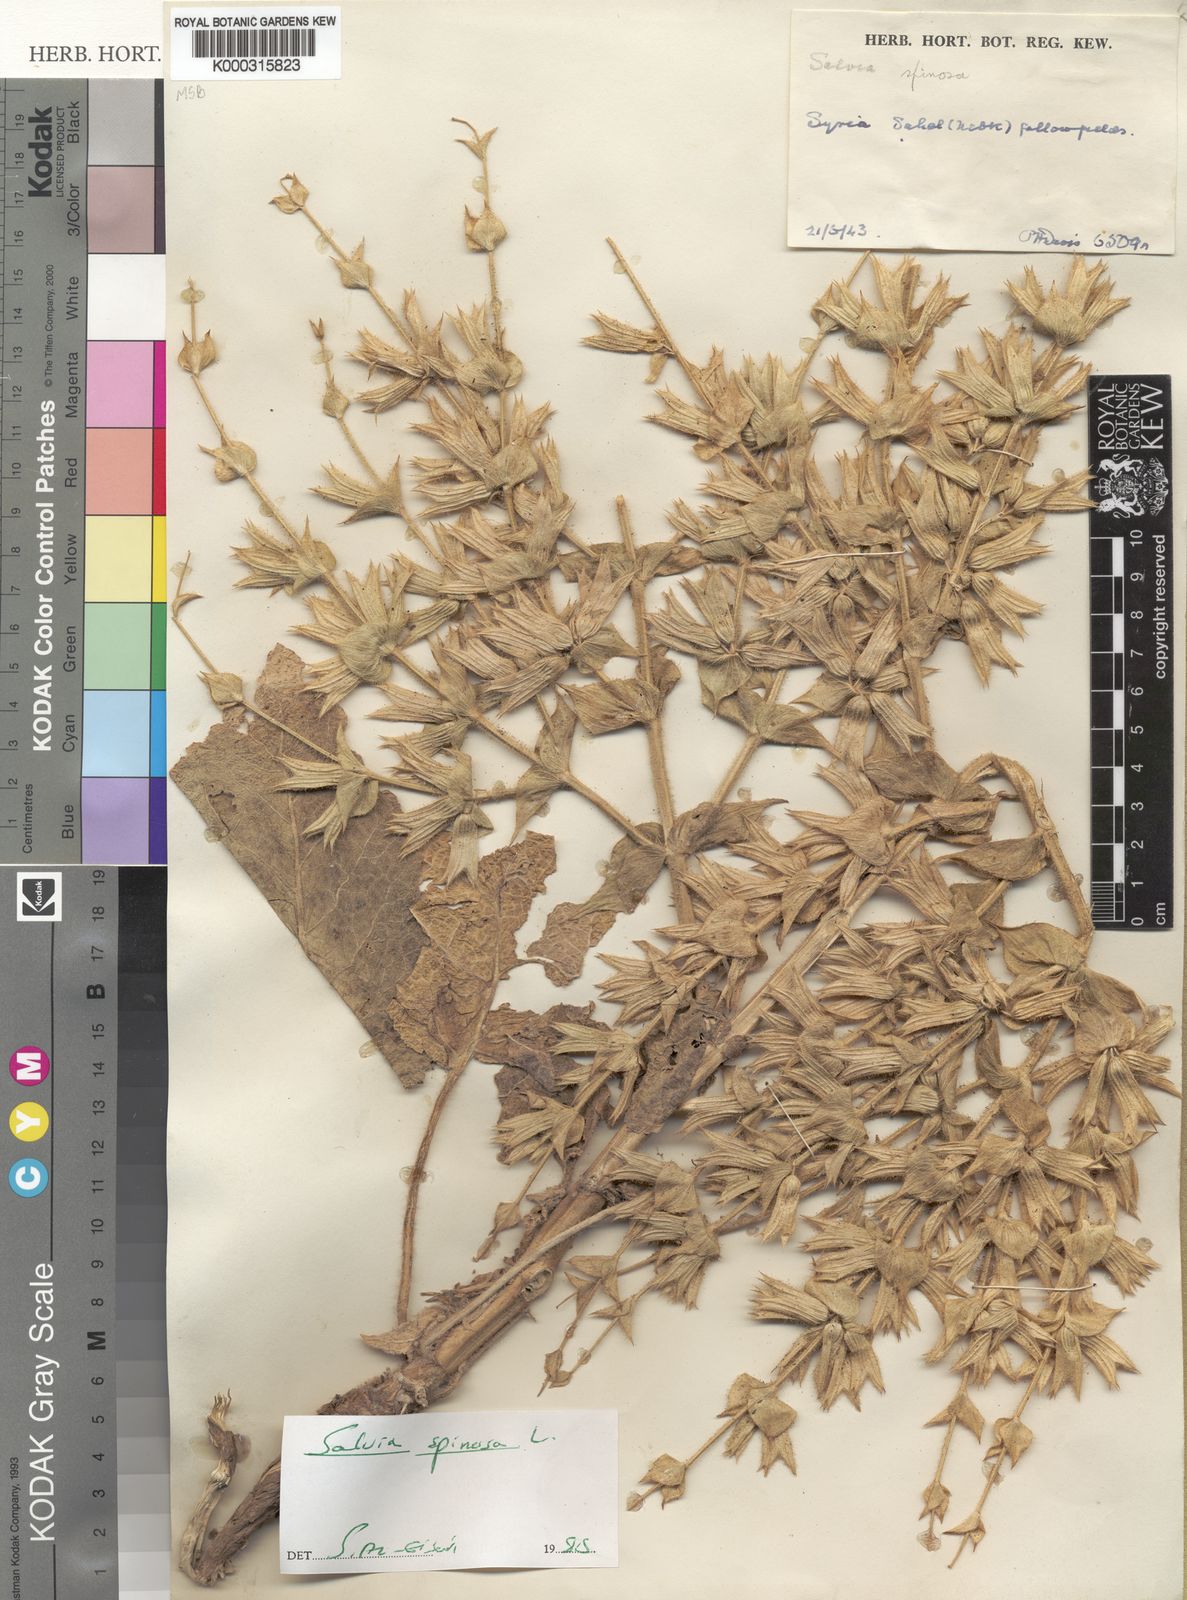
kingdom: Plantae
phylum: Tracheophyta
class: Magnoliopsida
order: Lamiales
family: Lamiaceae
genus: Salvia
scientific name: Salvia spinosa
